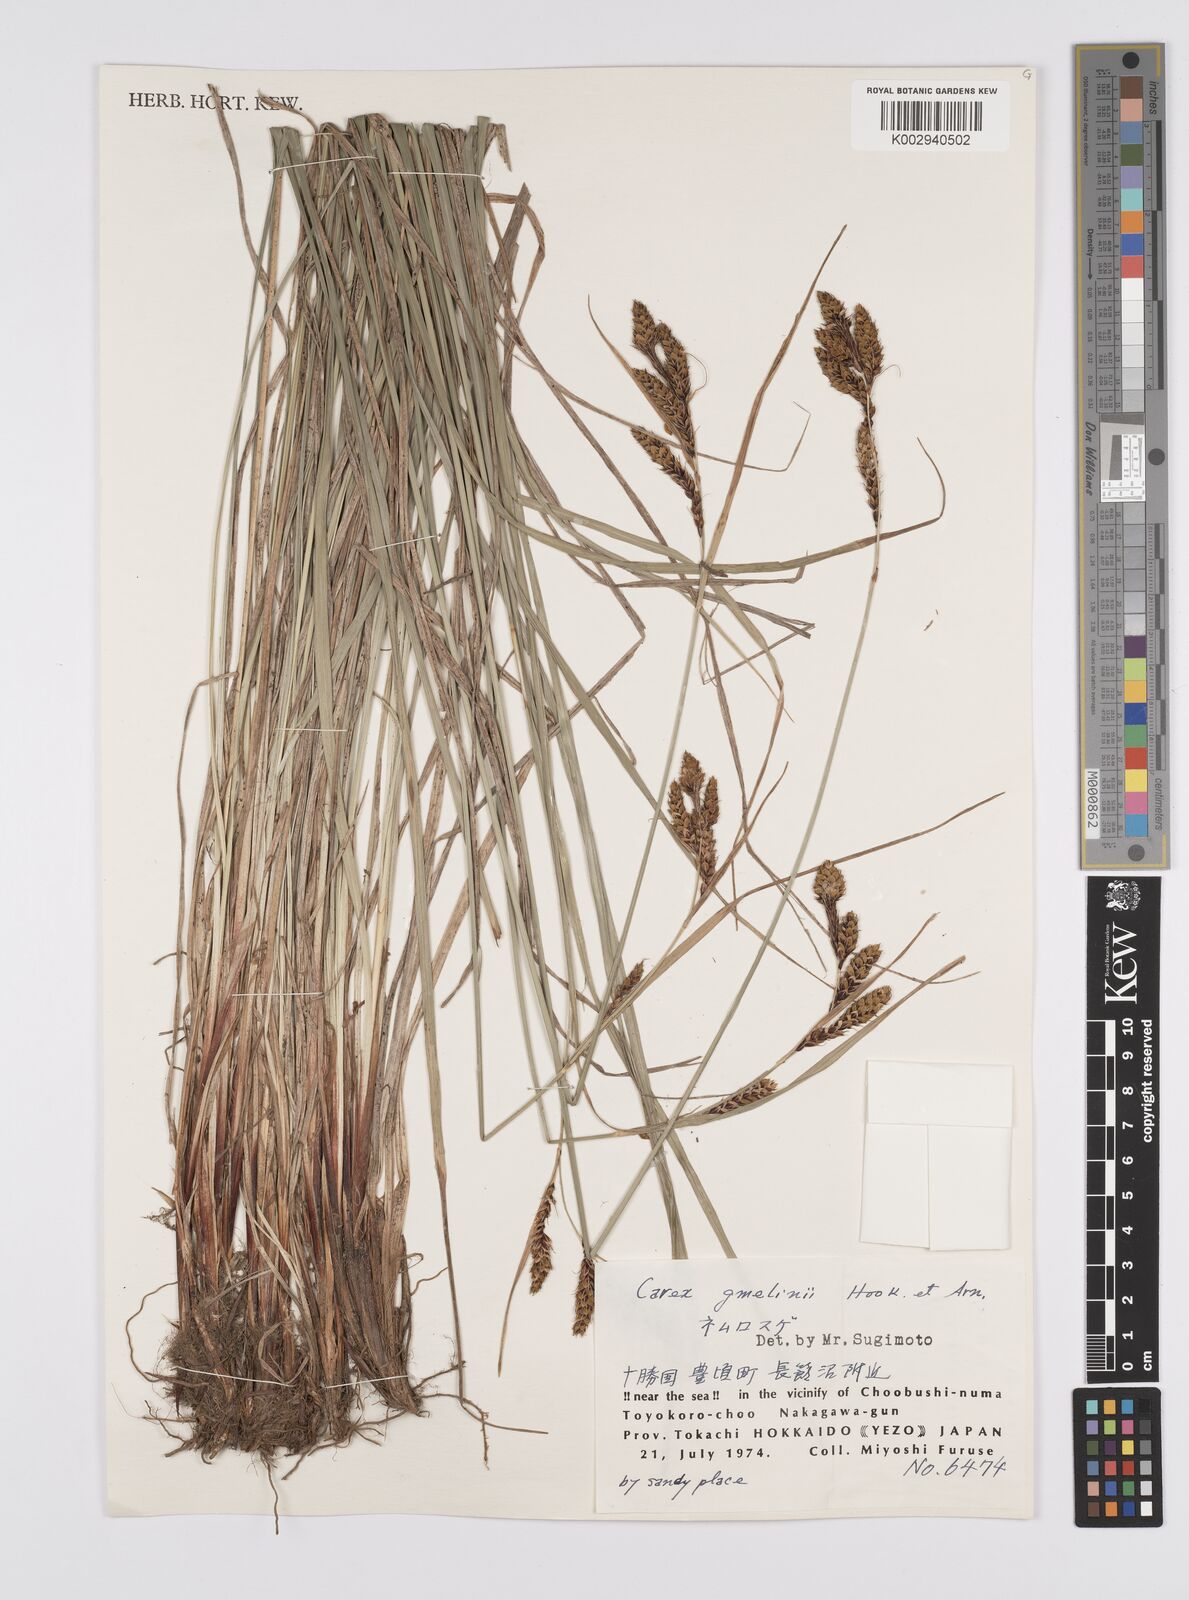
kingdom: Plantae
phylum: Tracheophyta
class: Liliopsida
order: Poales
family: Cyperaceae
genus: Carex
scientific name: Carex gmelinii
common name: Gmelin's sedge
